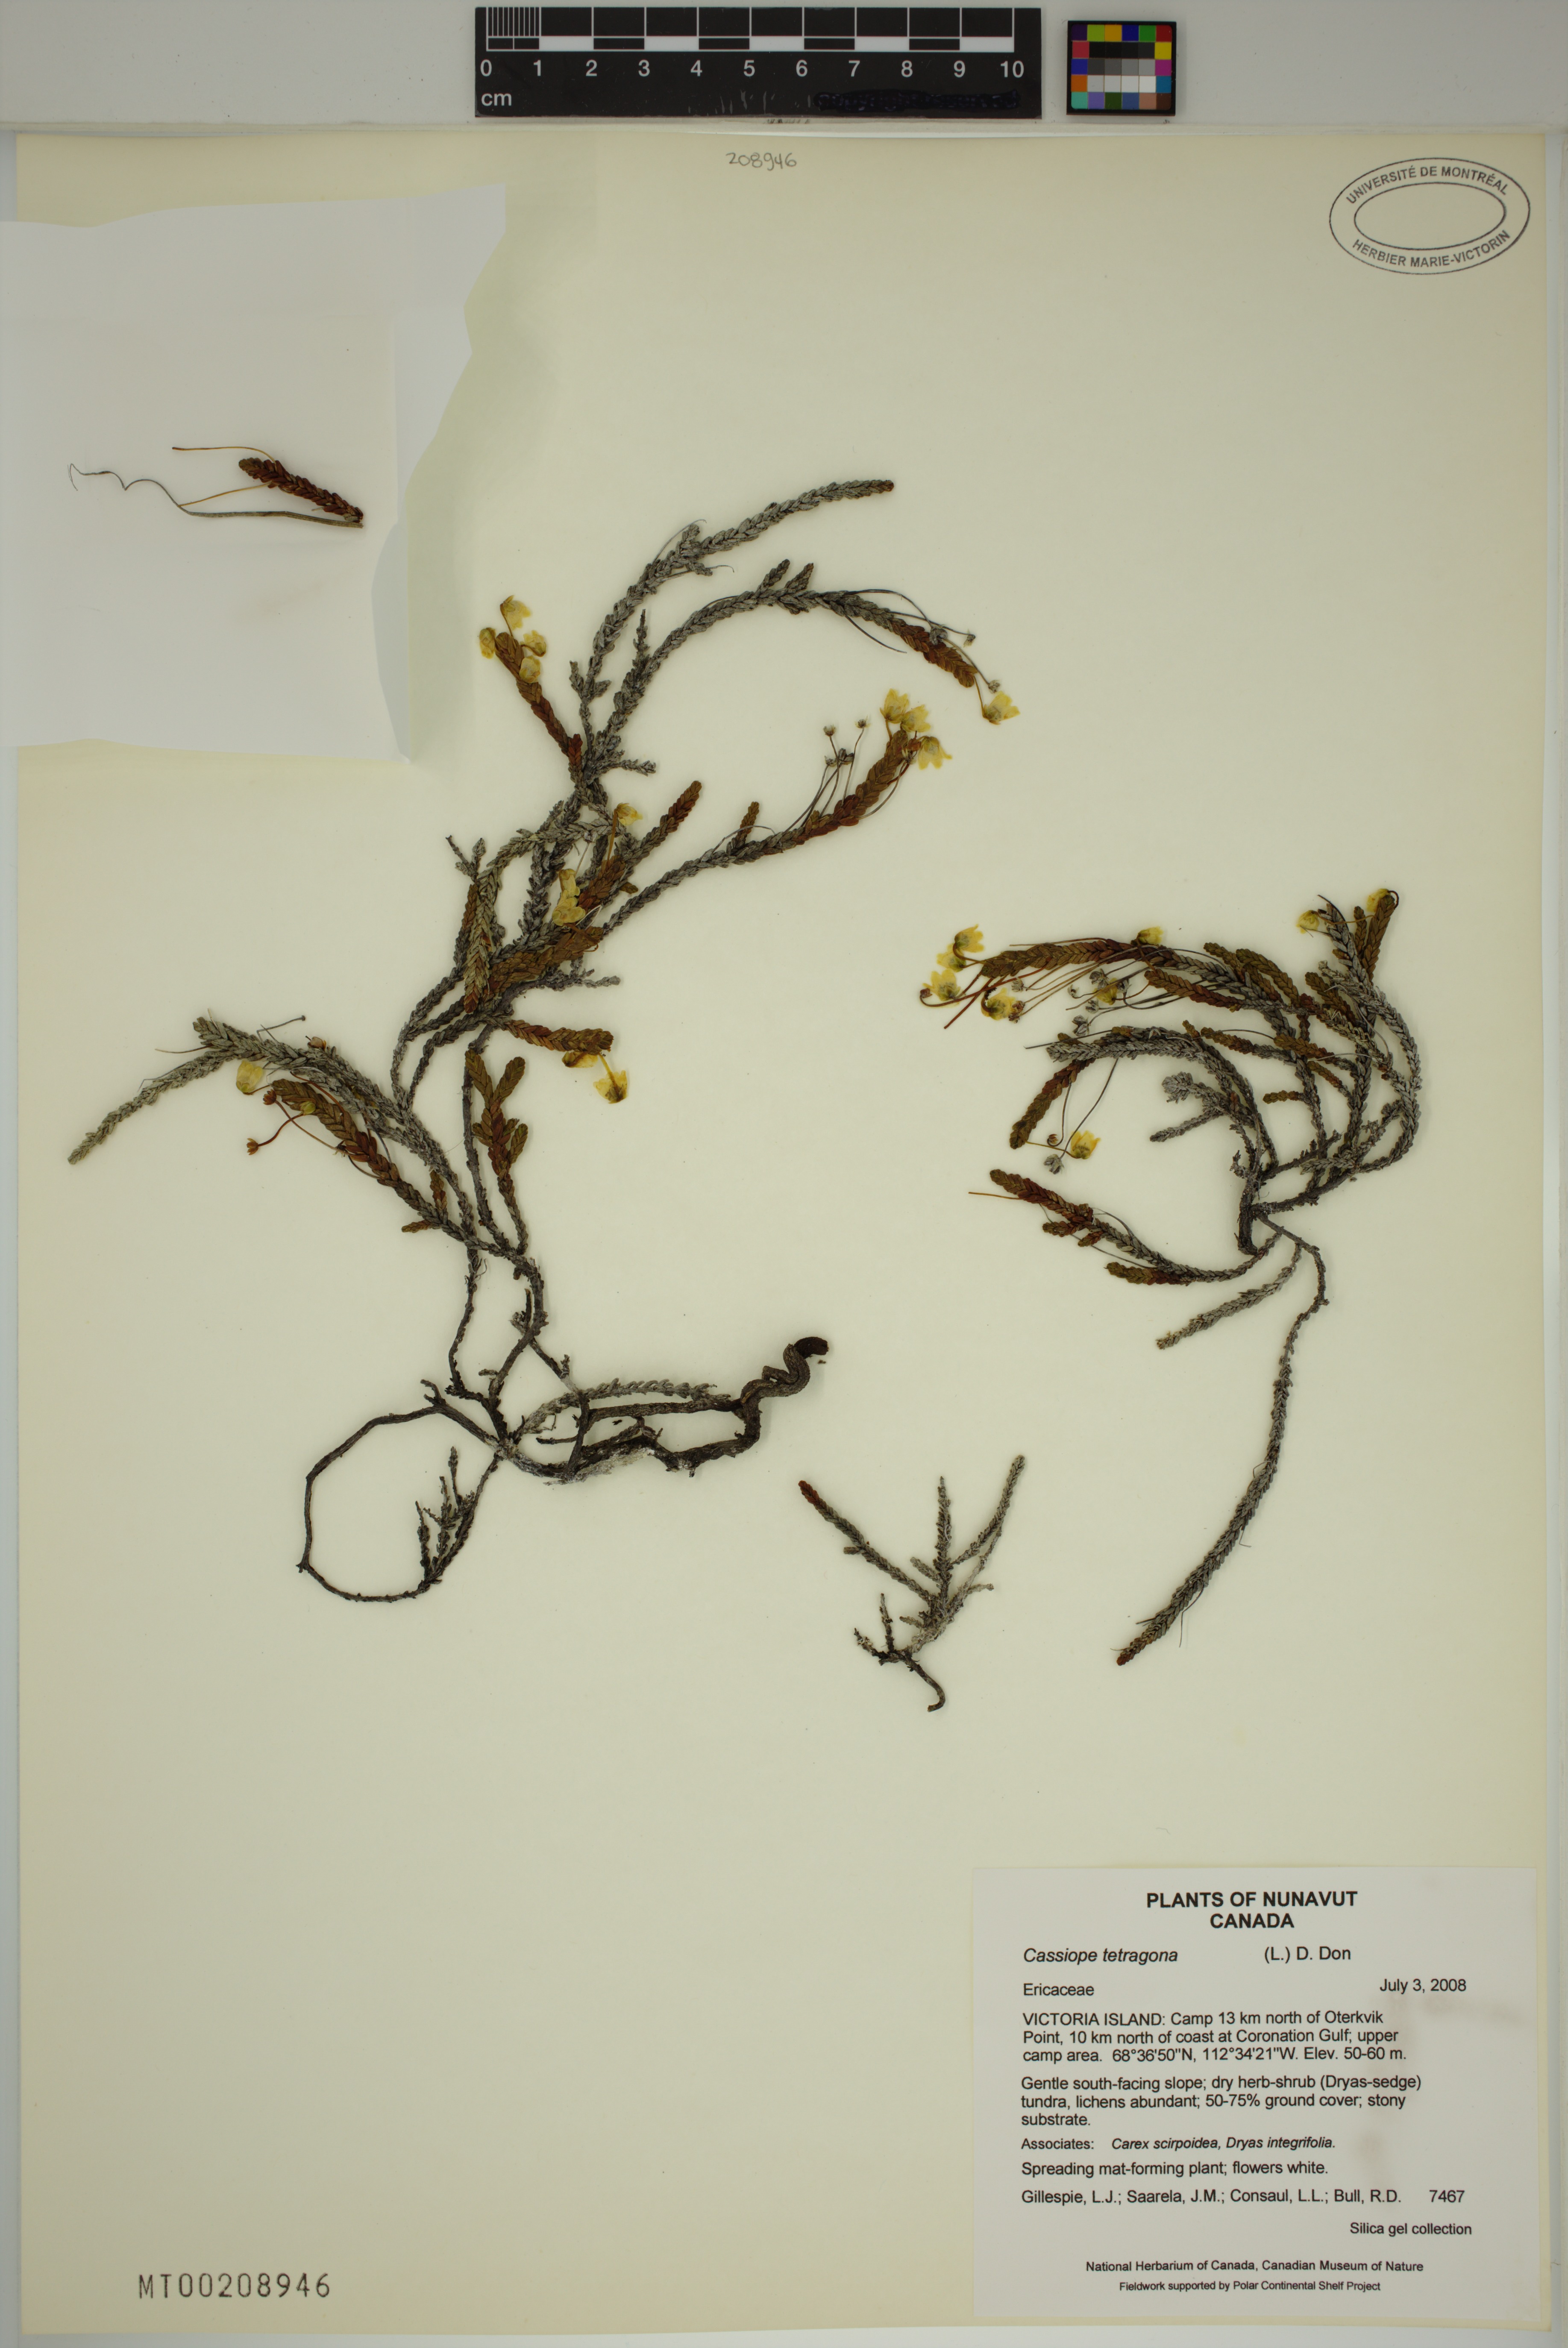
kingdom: Plantae
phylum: Tracheophyta
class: Magnoliopsida
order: Ericales
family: Ericaceae
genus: Cassiope
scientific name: Cassiope tetragona
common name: Arctic bell heather
